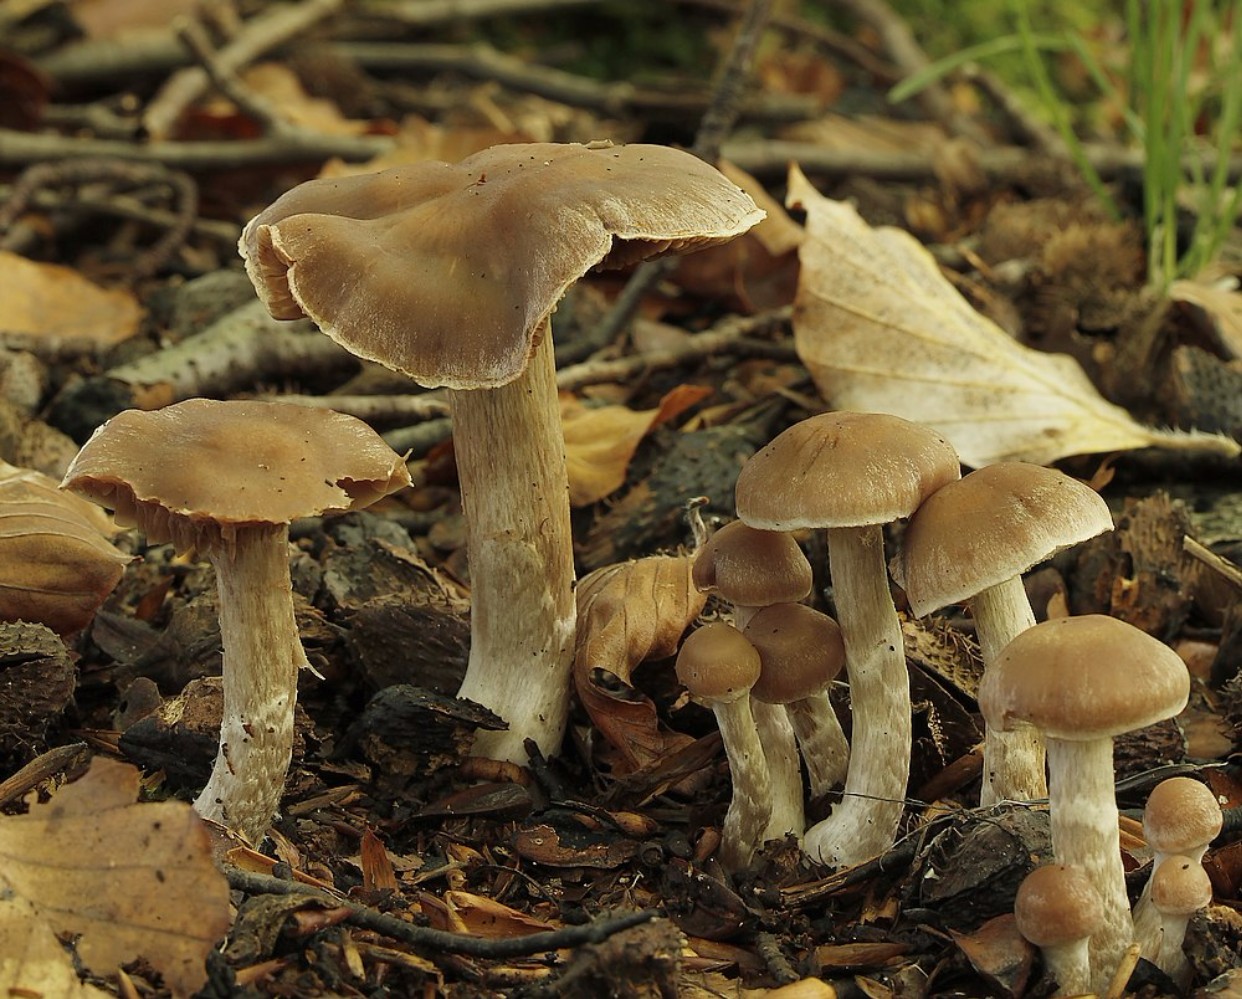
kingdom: Fungi
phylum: Basidiomycota
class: Agaricomycetes
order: Agaricales
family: Cortinariaceae
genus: Cortinarius
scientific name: Cortinarius
